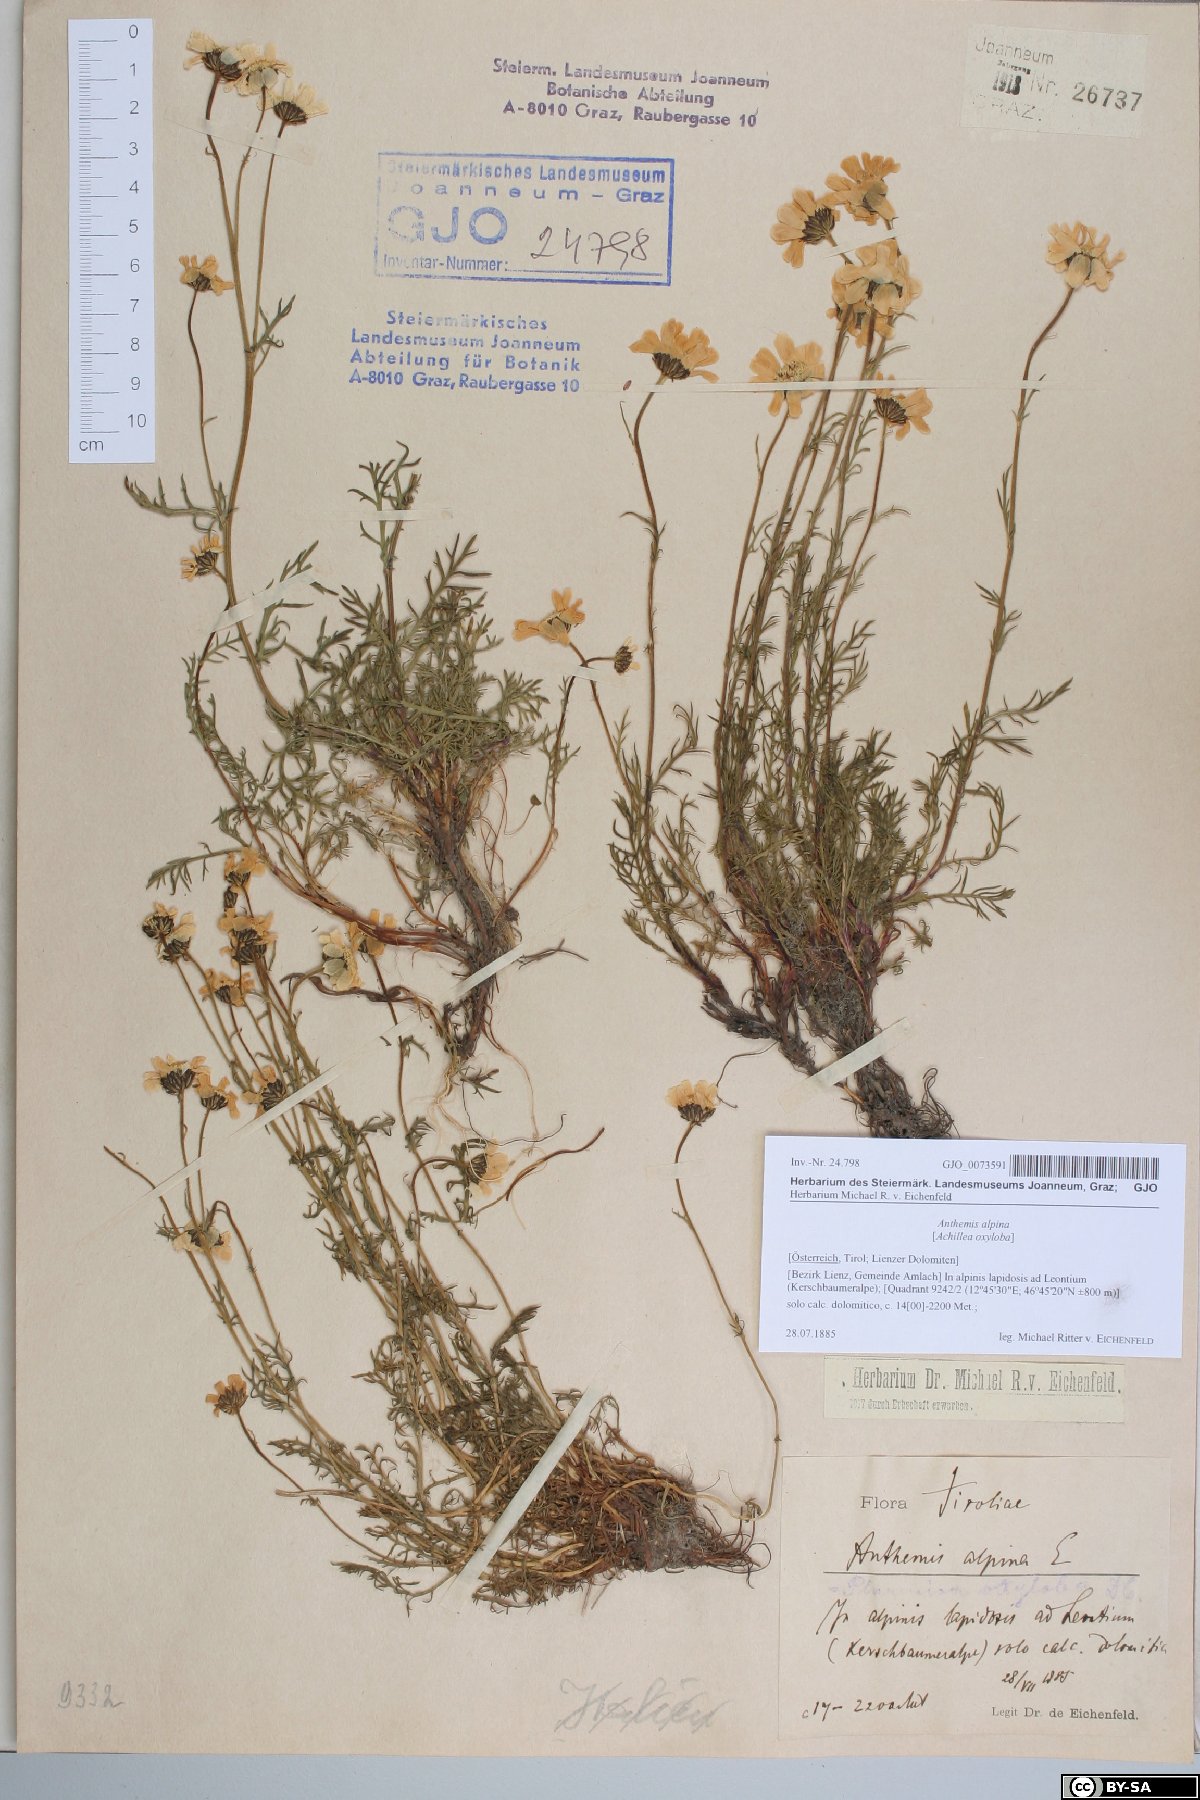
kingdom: Plantae
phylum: Tracheophyta
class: Magnoliopsida
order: Asterales
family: Asteraceae
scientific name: Asteraceae
